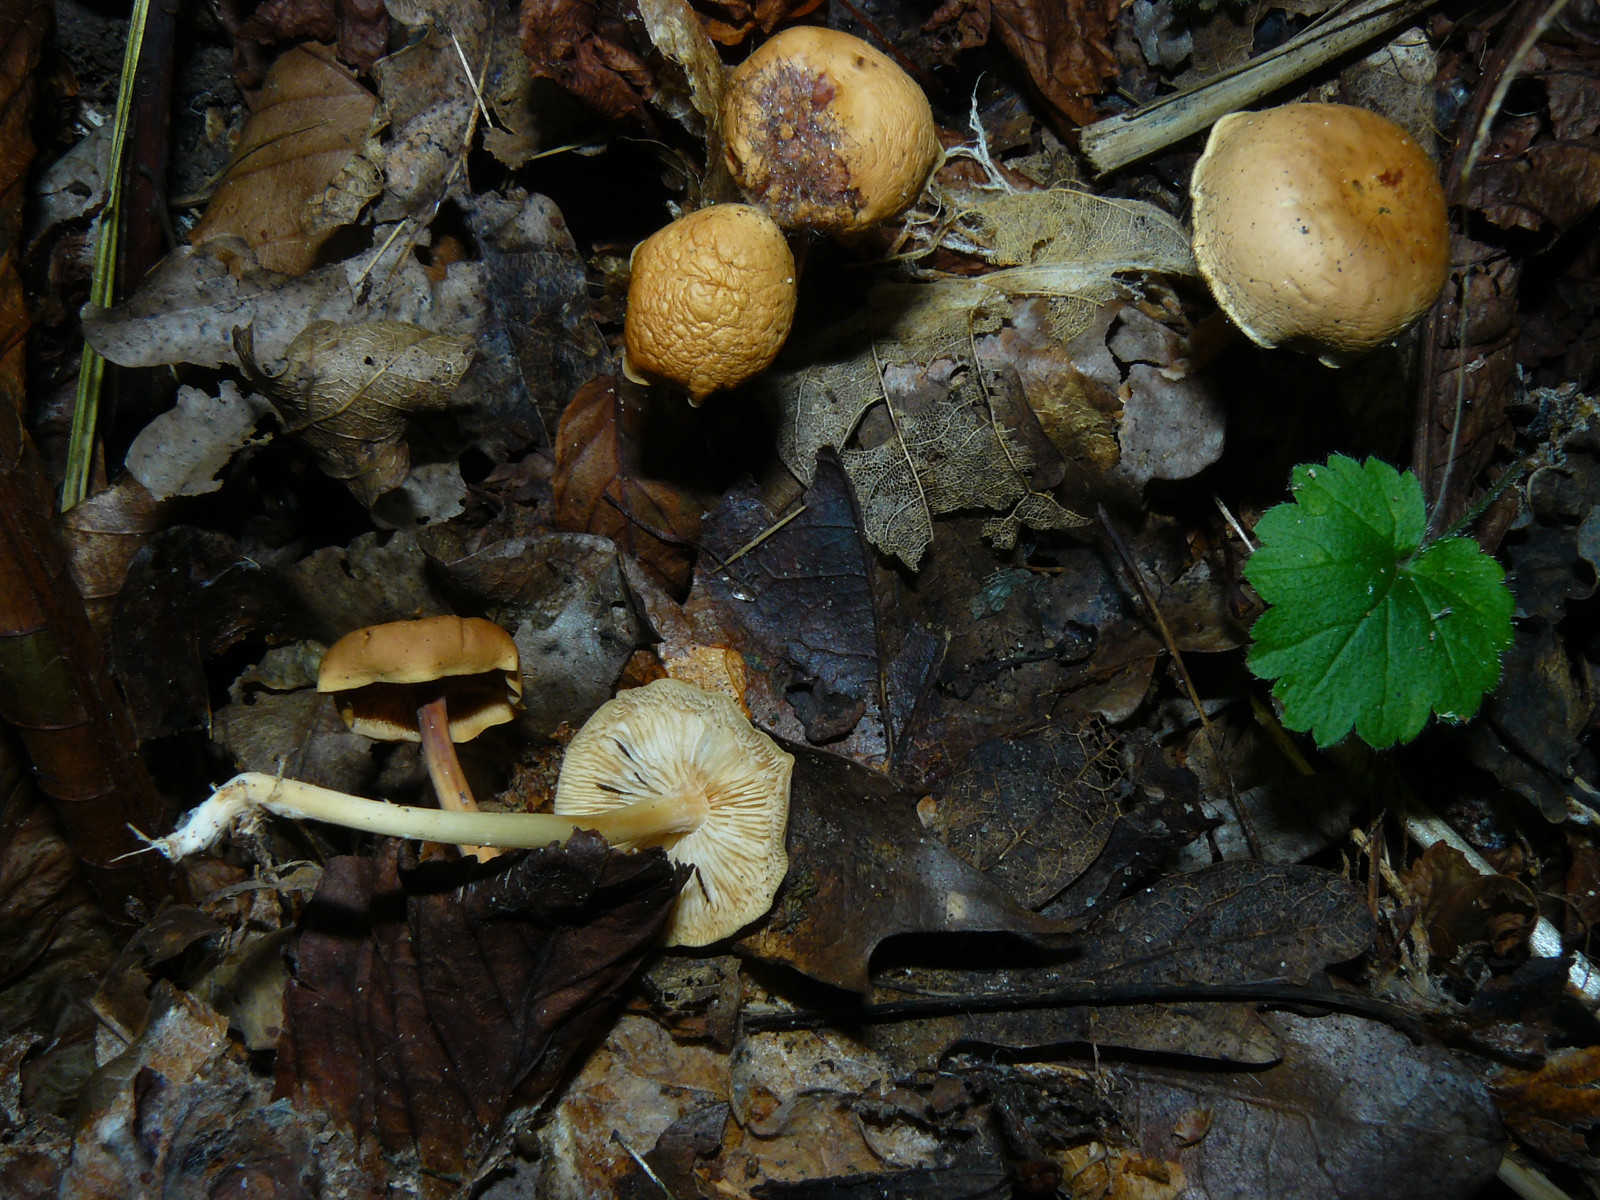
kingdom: Fungi
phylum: Basidiomycota
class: Agaricomycetes
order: Agaricales
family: Omphalotaceae
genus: Gymnopus
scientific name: Gymnopus dryophilus
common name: løv-fladhat
